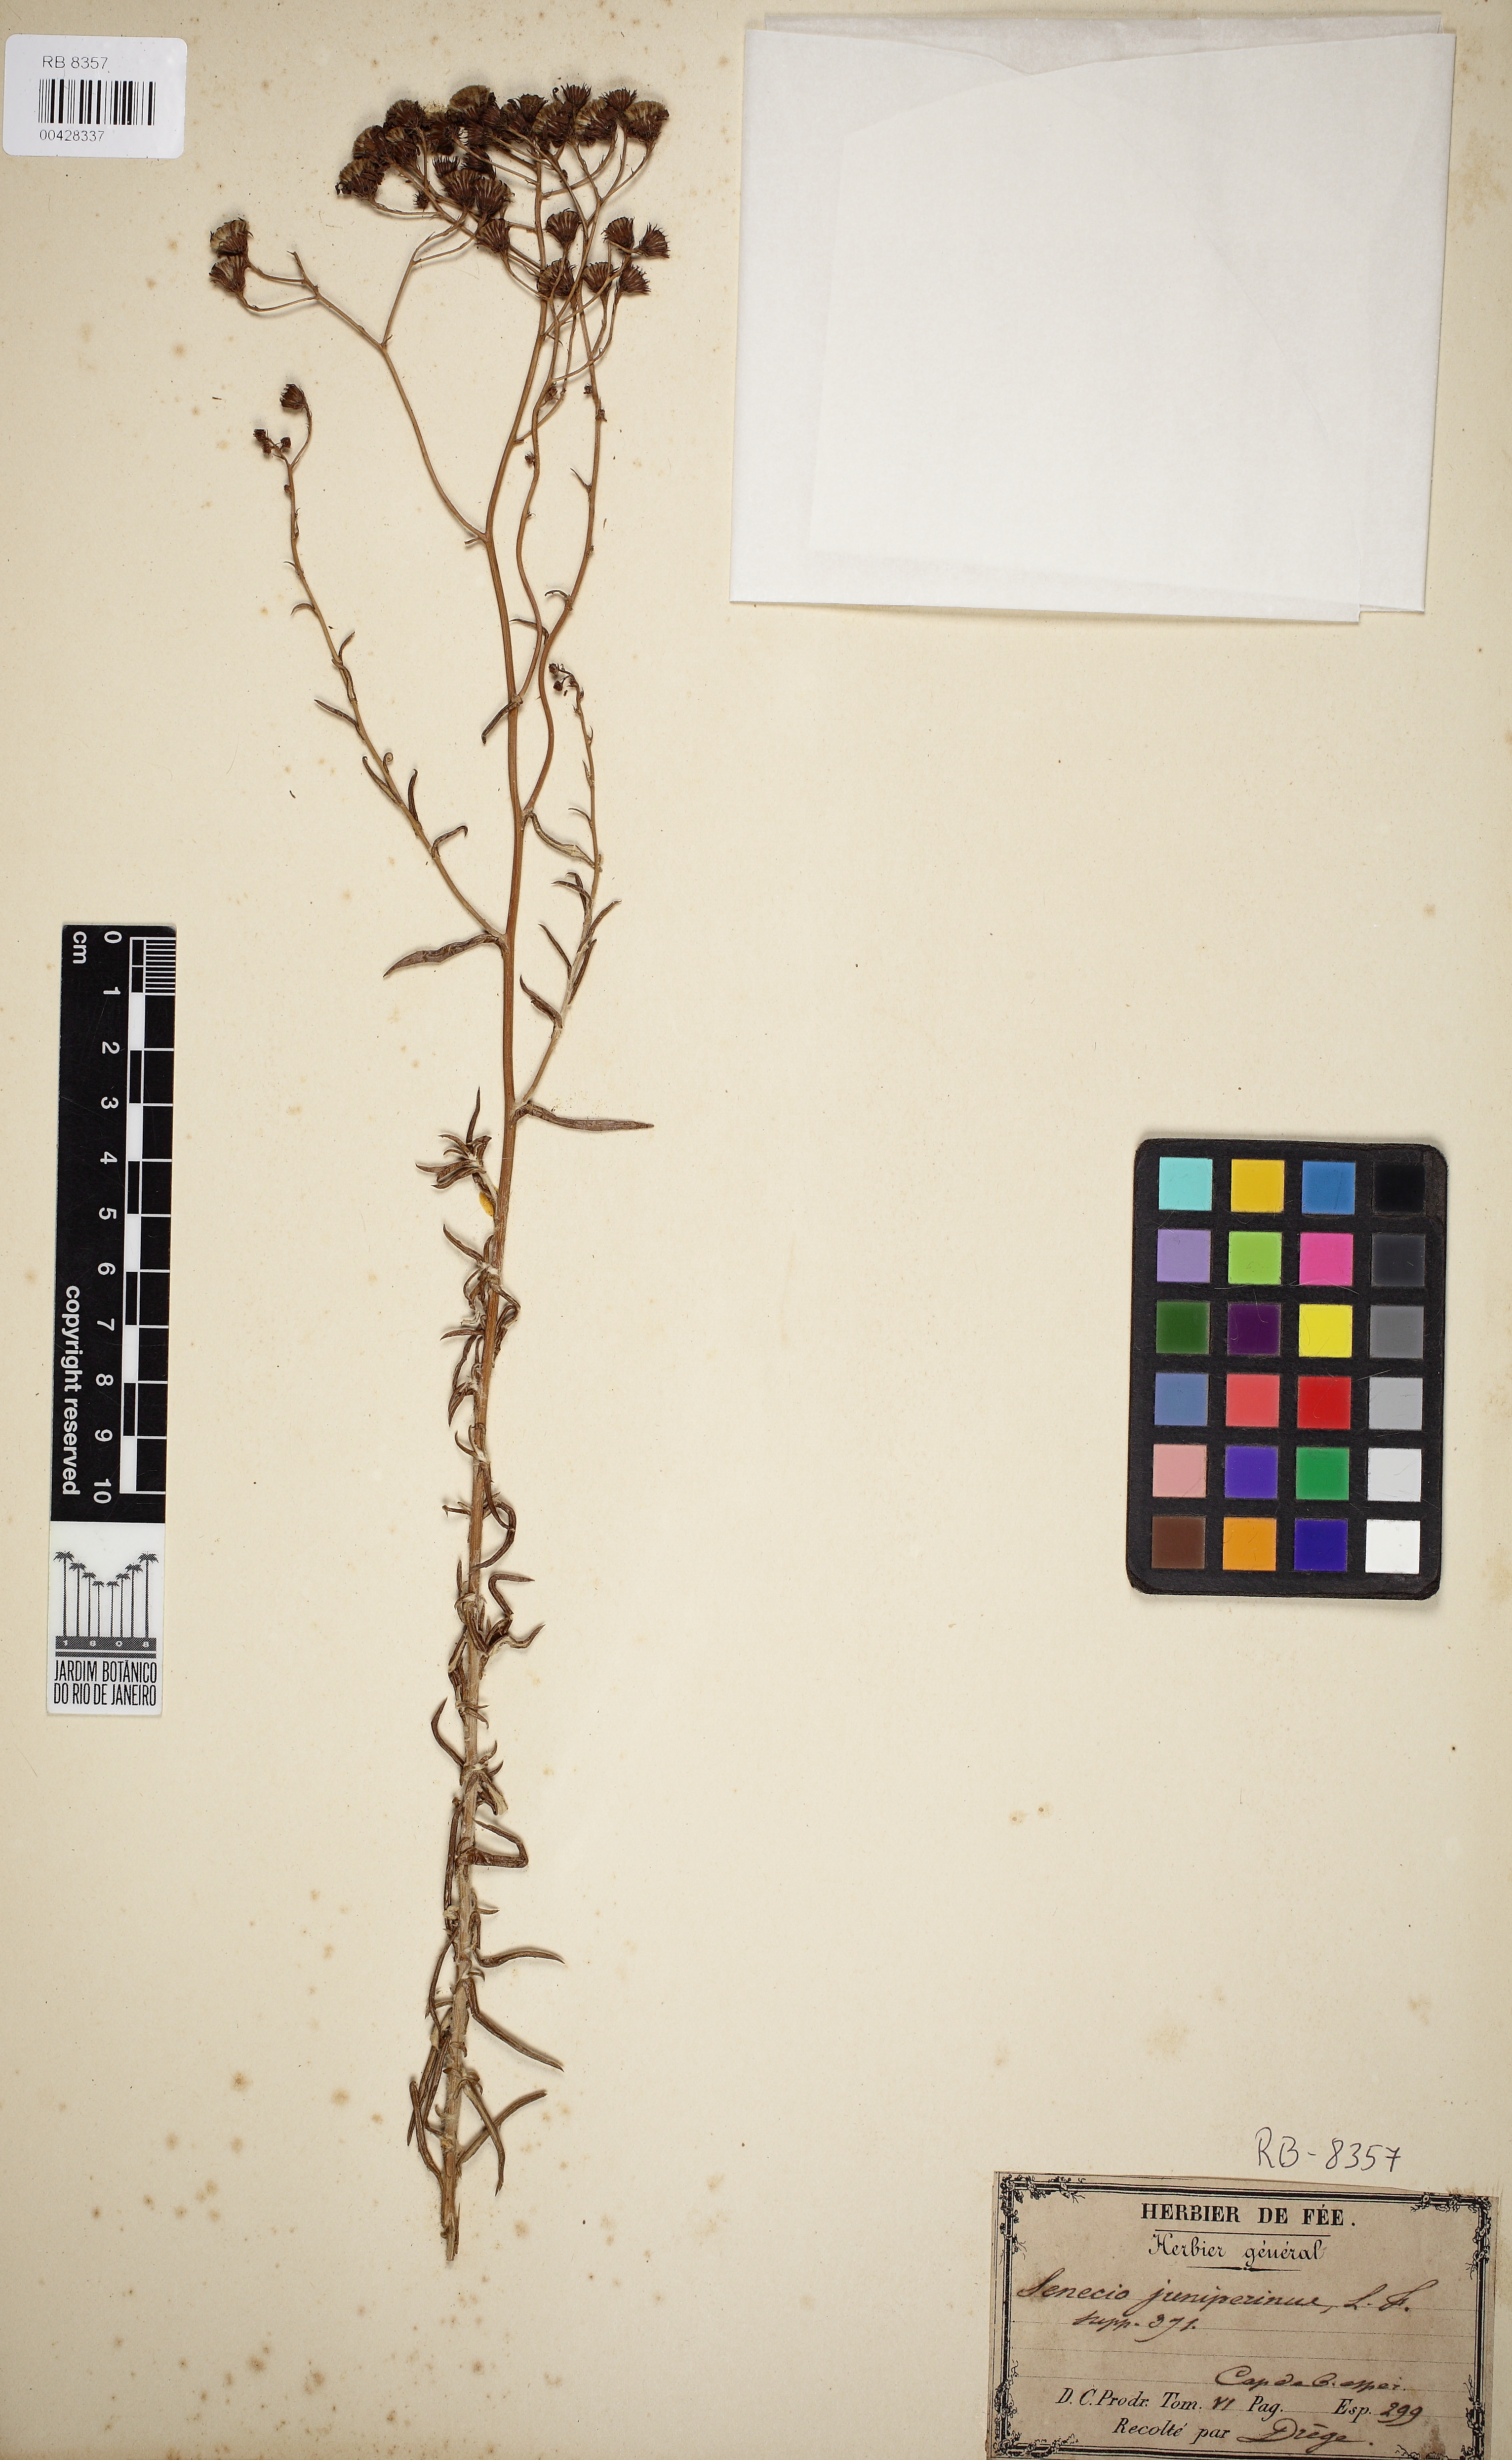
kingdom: Plantae
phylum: Tracheophyta
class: Magnoliopsida
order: Asterales
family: Asteraceae
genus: Senecio
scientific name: Senecio juniperinus
